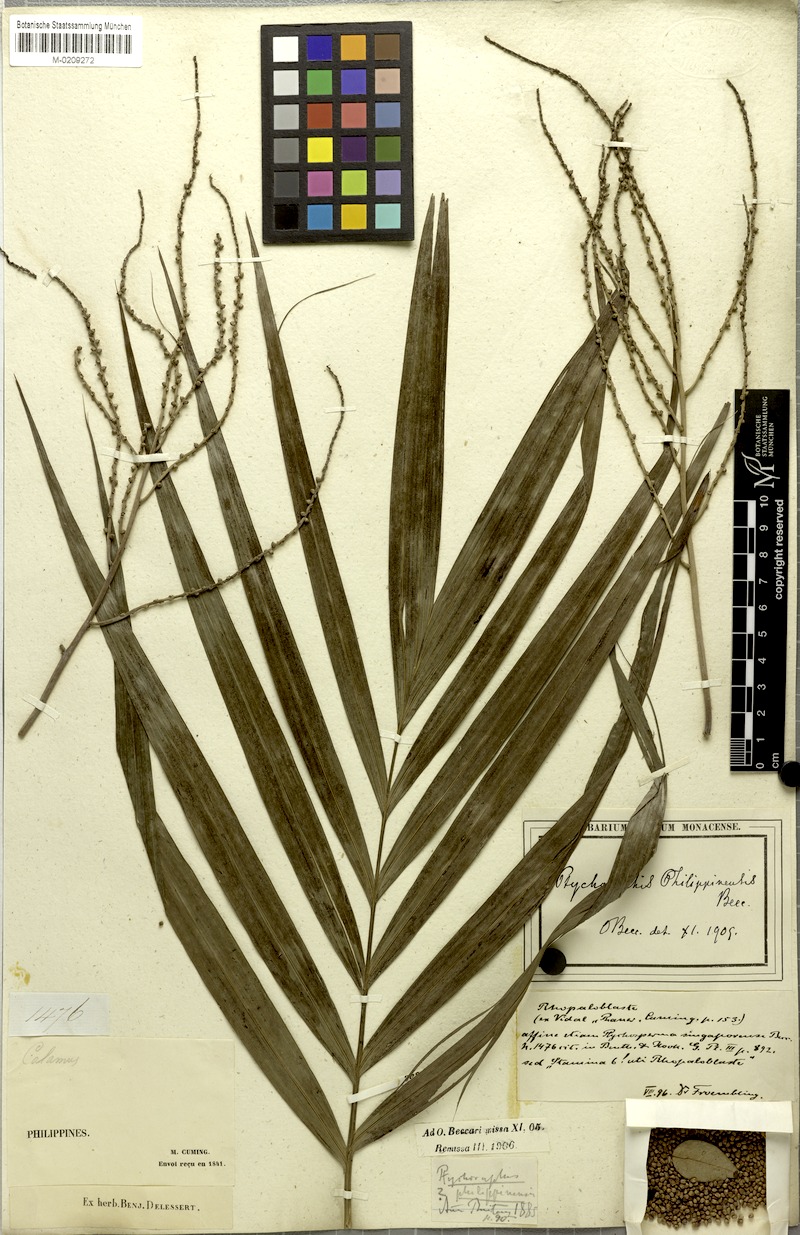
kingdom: Plantae
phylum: Tracheophyta
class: Liliopsida
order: Arecales
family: Arecaceae
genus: Heterospathe
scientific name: Heterospathe philippinensis
